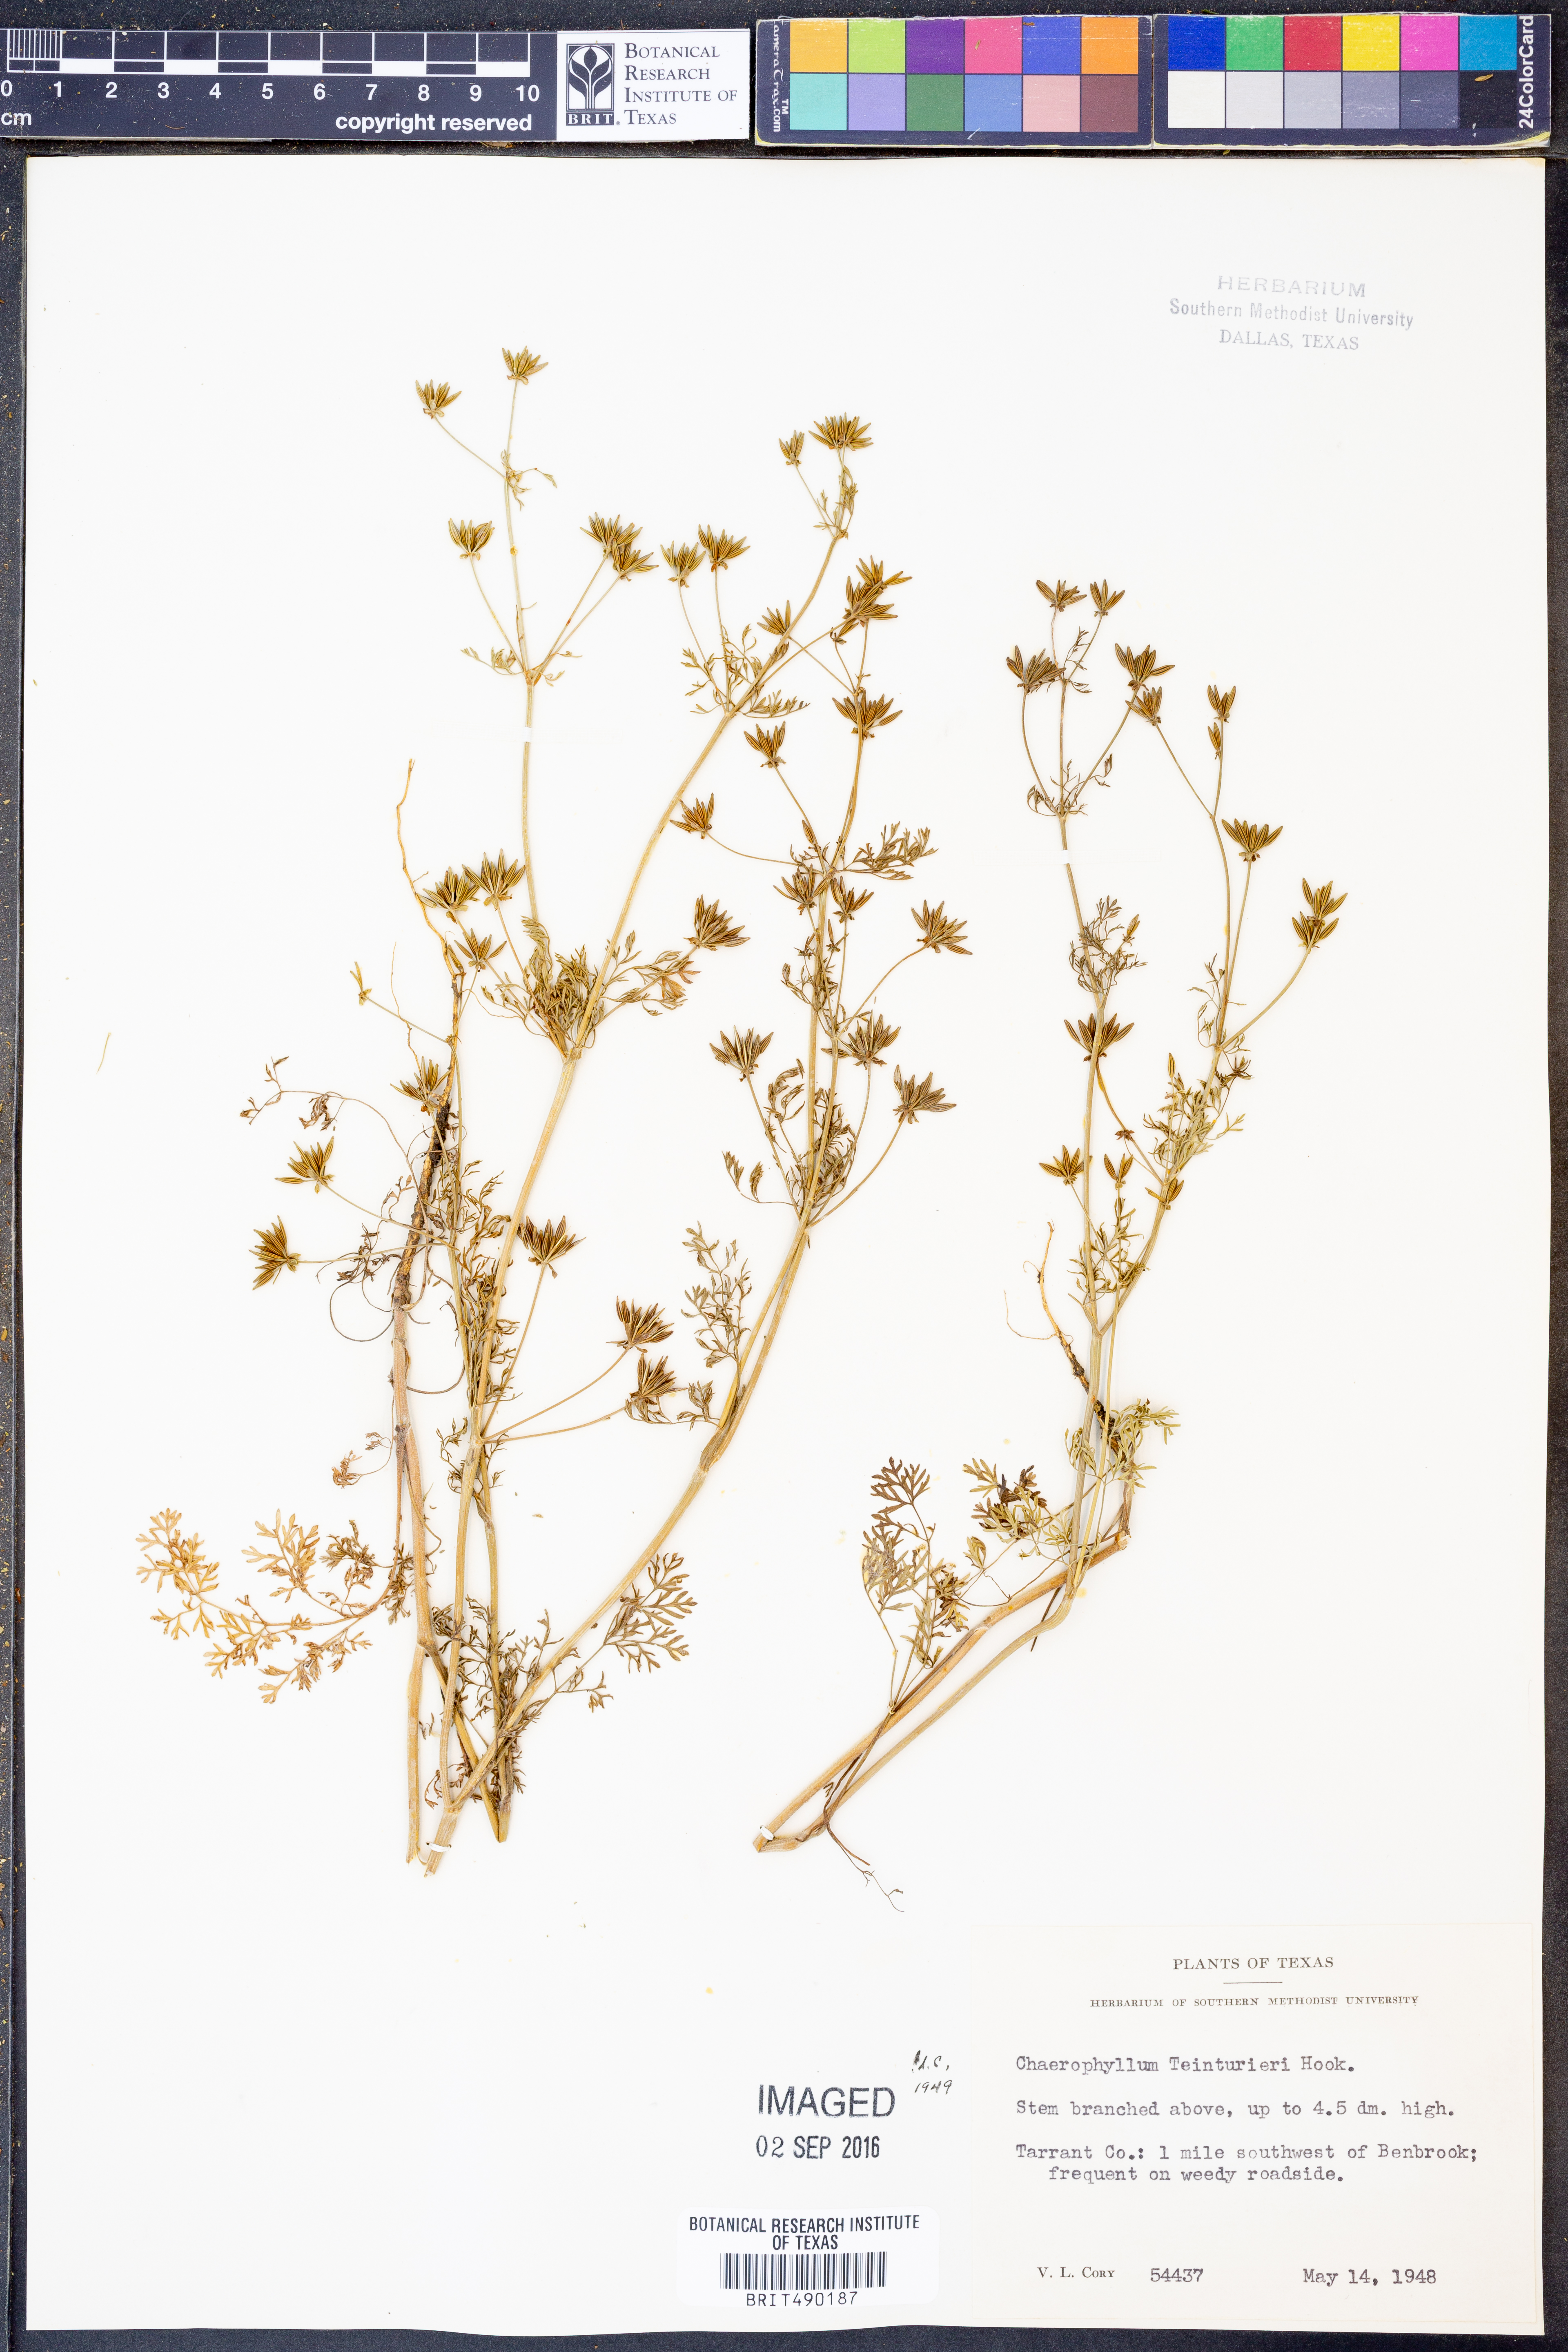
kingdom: Plantae
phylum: Tracheophyta
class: Magnoliopsida
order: Apiales
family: Apiaceae
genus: Chaerophyllum
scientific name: Chaerophyllum tainturieri
